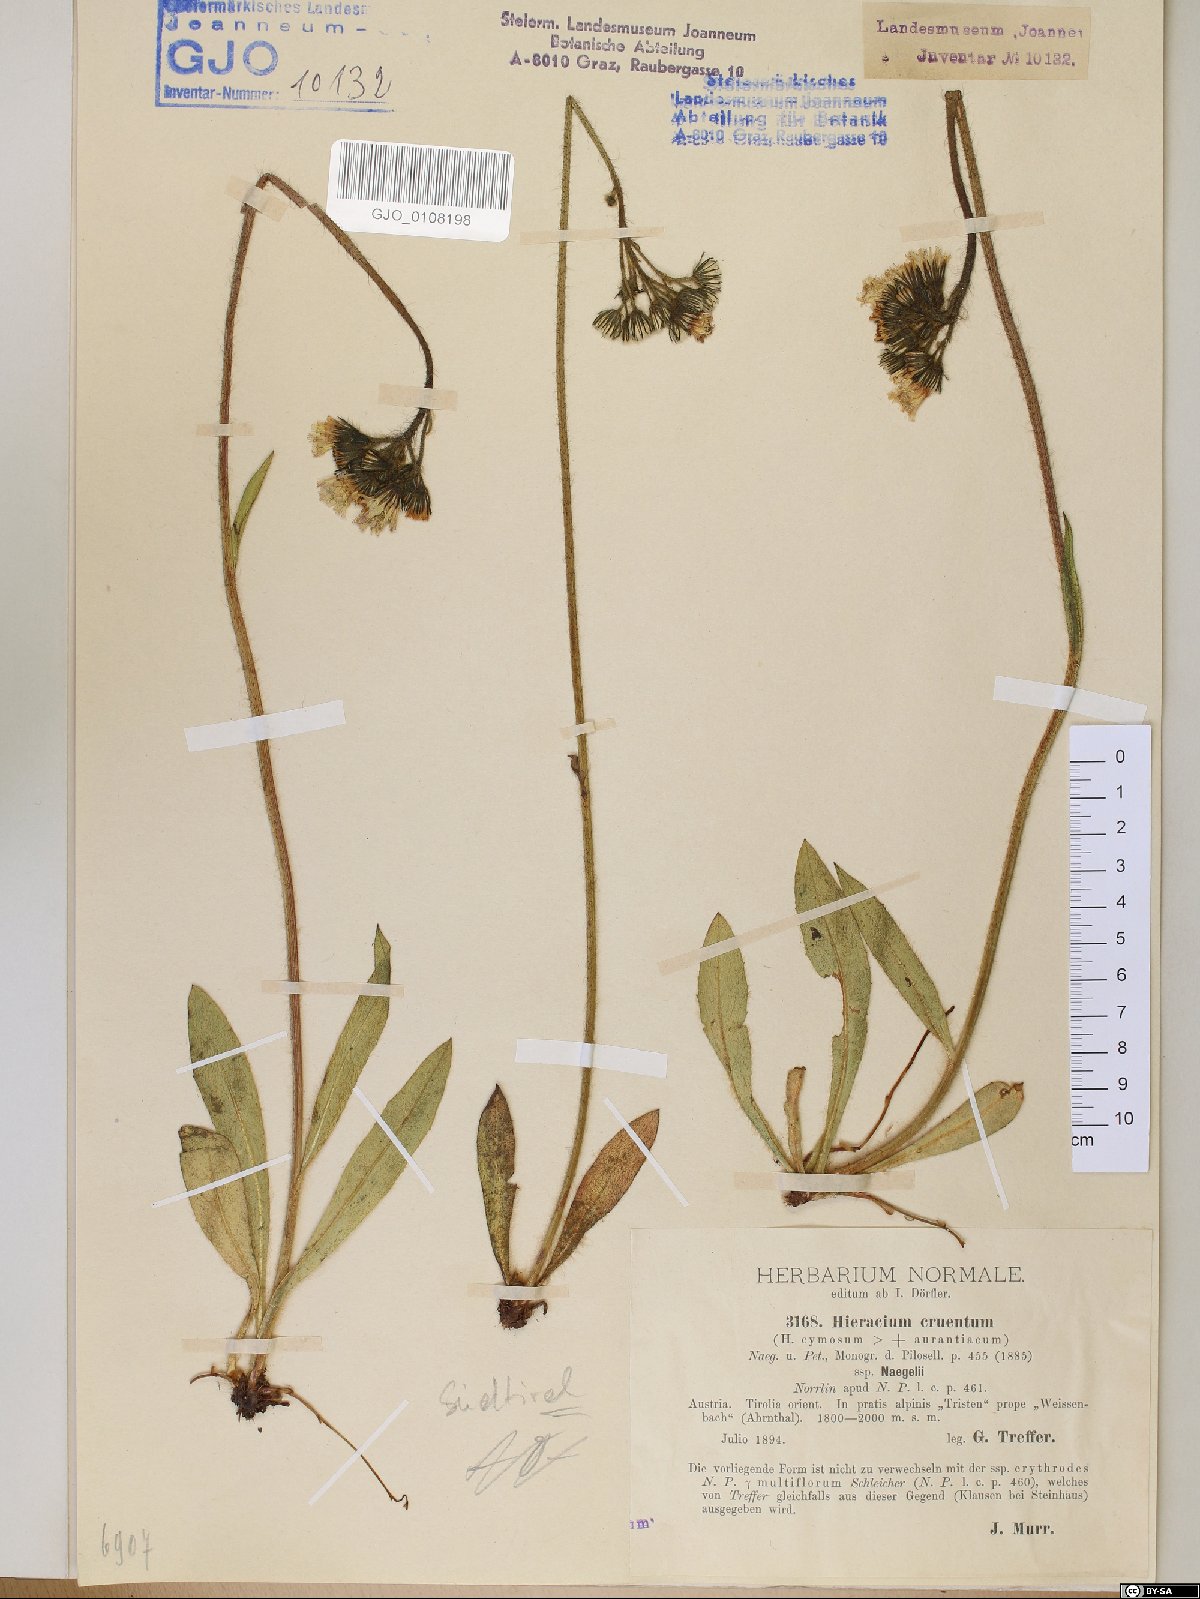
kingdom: Plantae
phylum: Tracheophyta
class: Magnoliopsida
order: Asterales
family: Asteraceae
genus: Pilosella
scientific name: Pilosella guthnikiana
